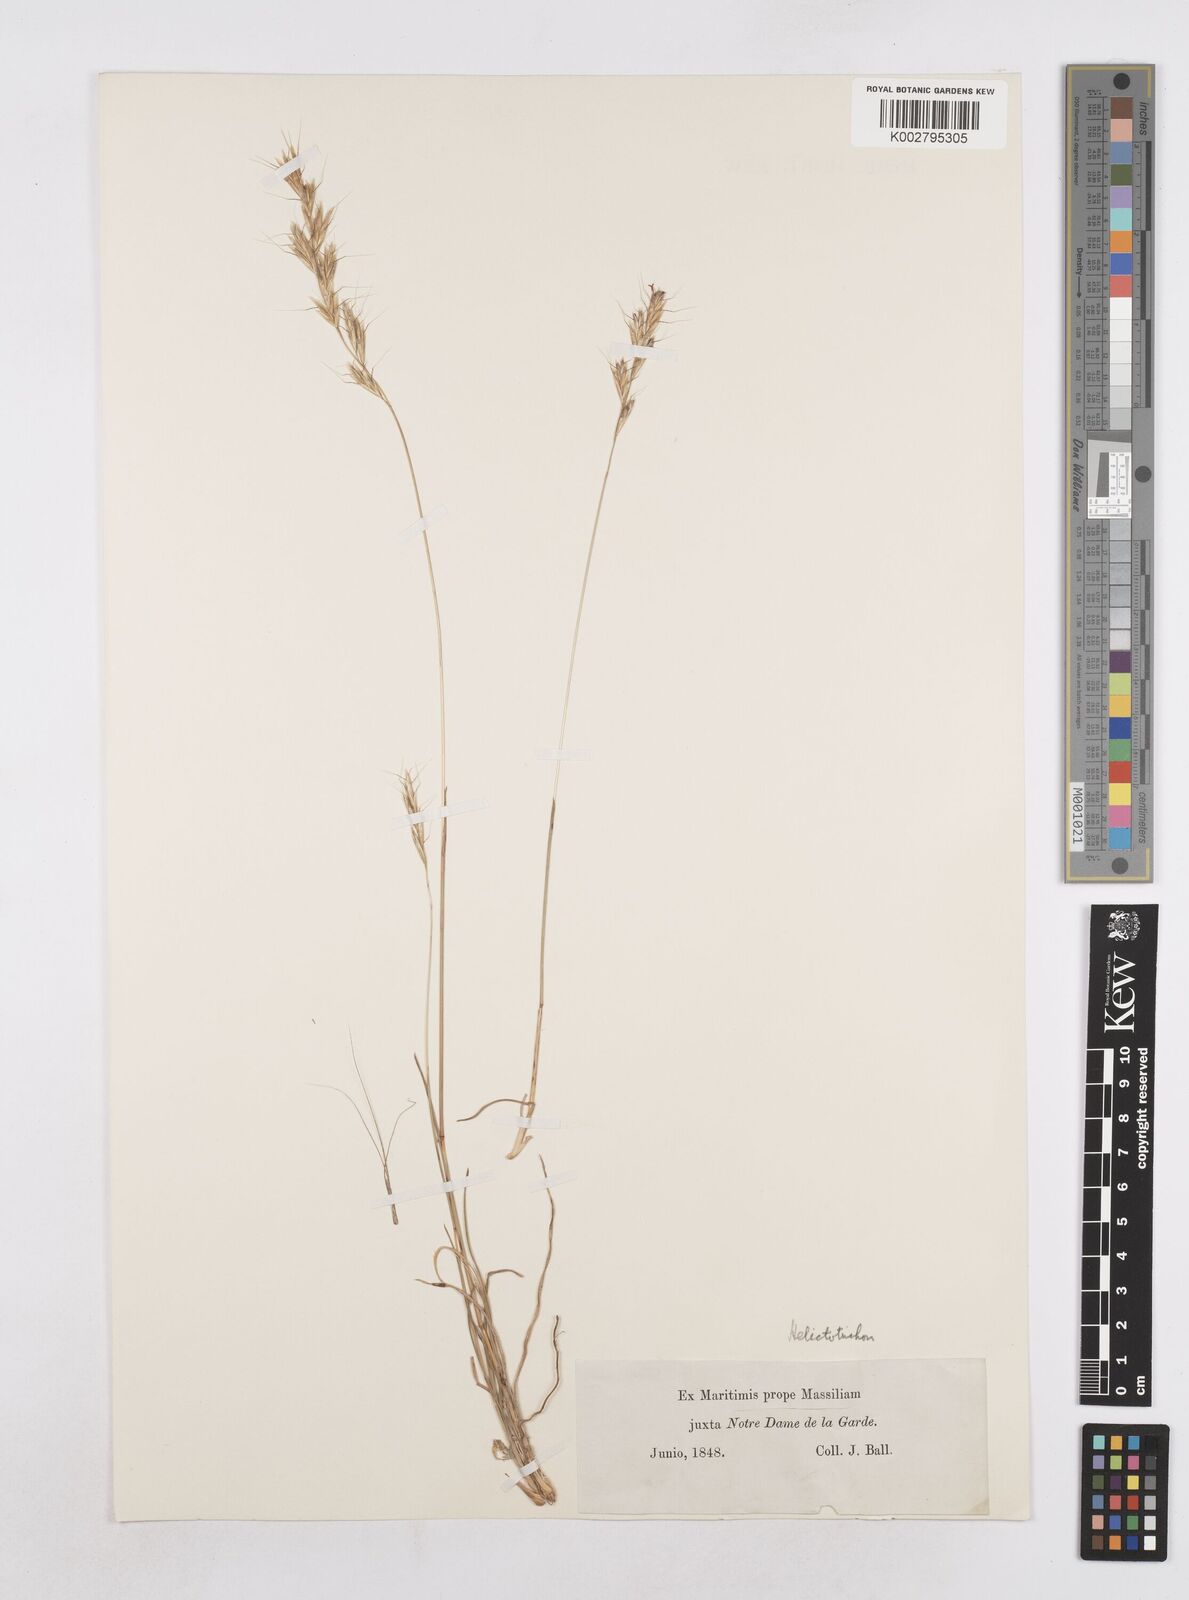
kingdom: Plantae
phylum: Tracheophyta
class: Liliopsida
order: Poales
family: Poaceae
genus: Helictotrichon
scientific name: Helictotrichon
